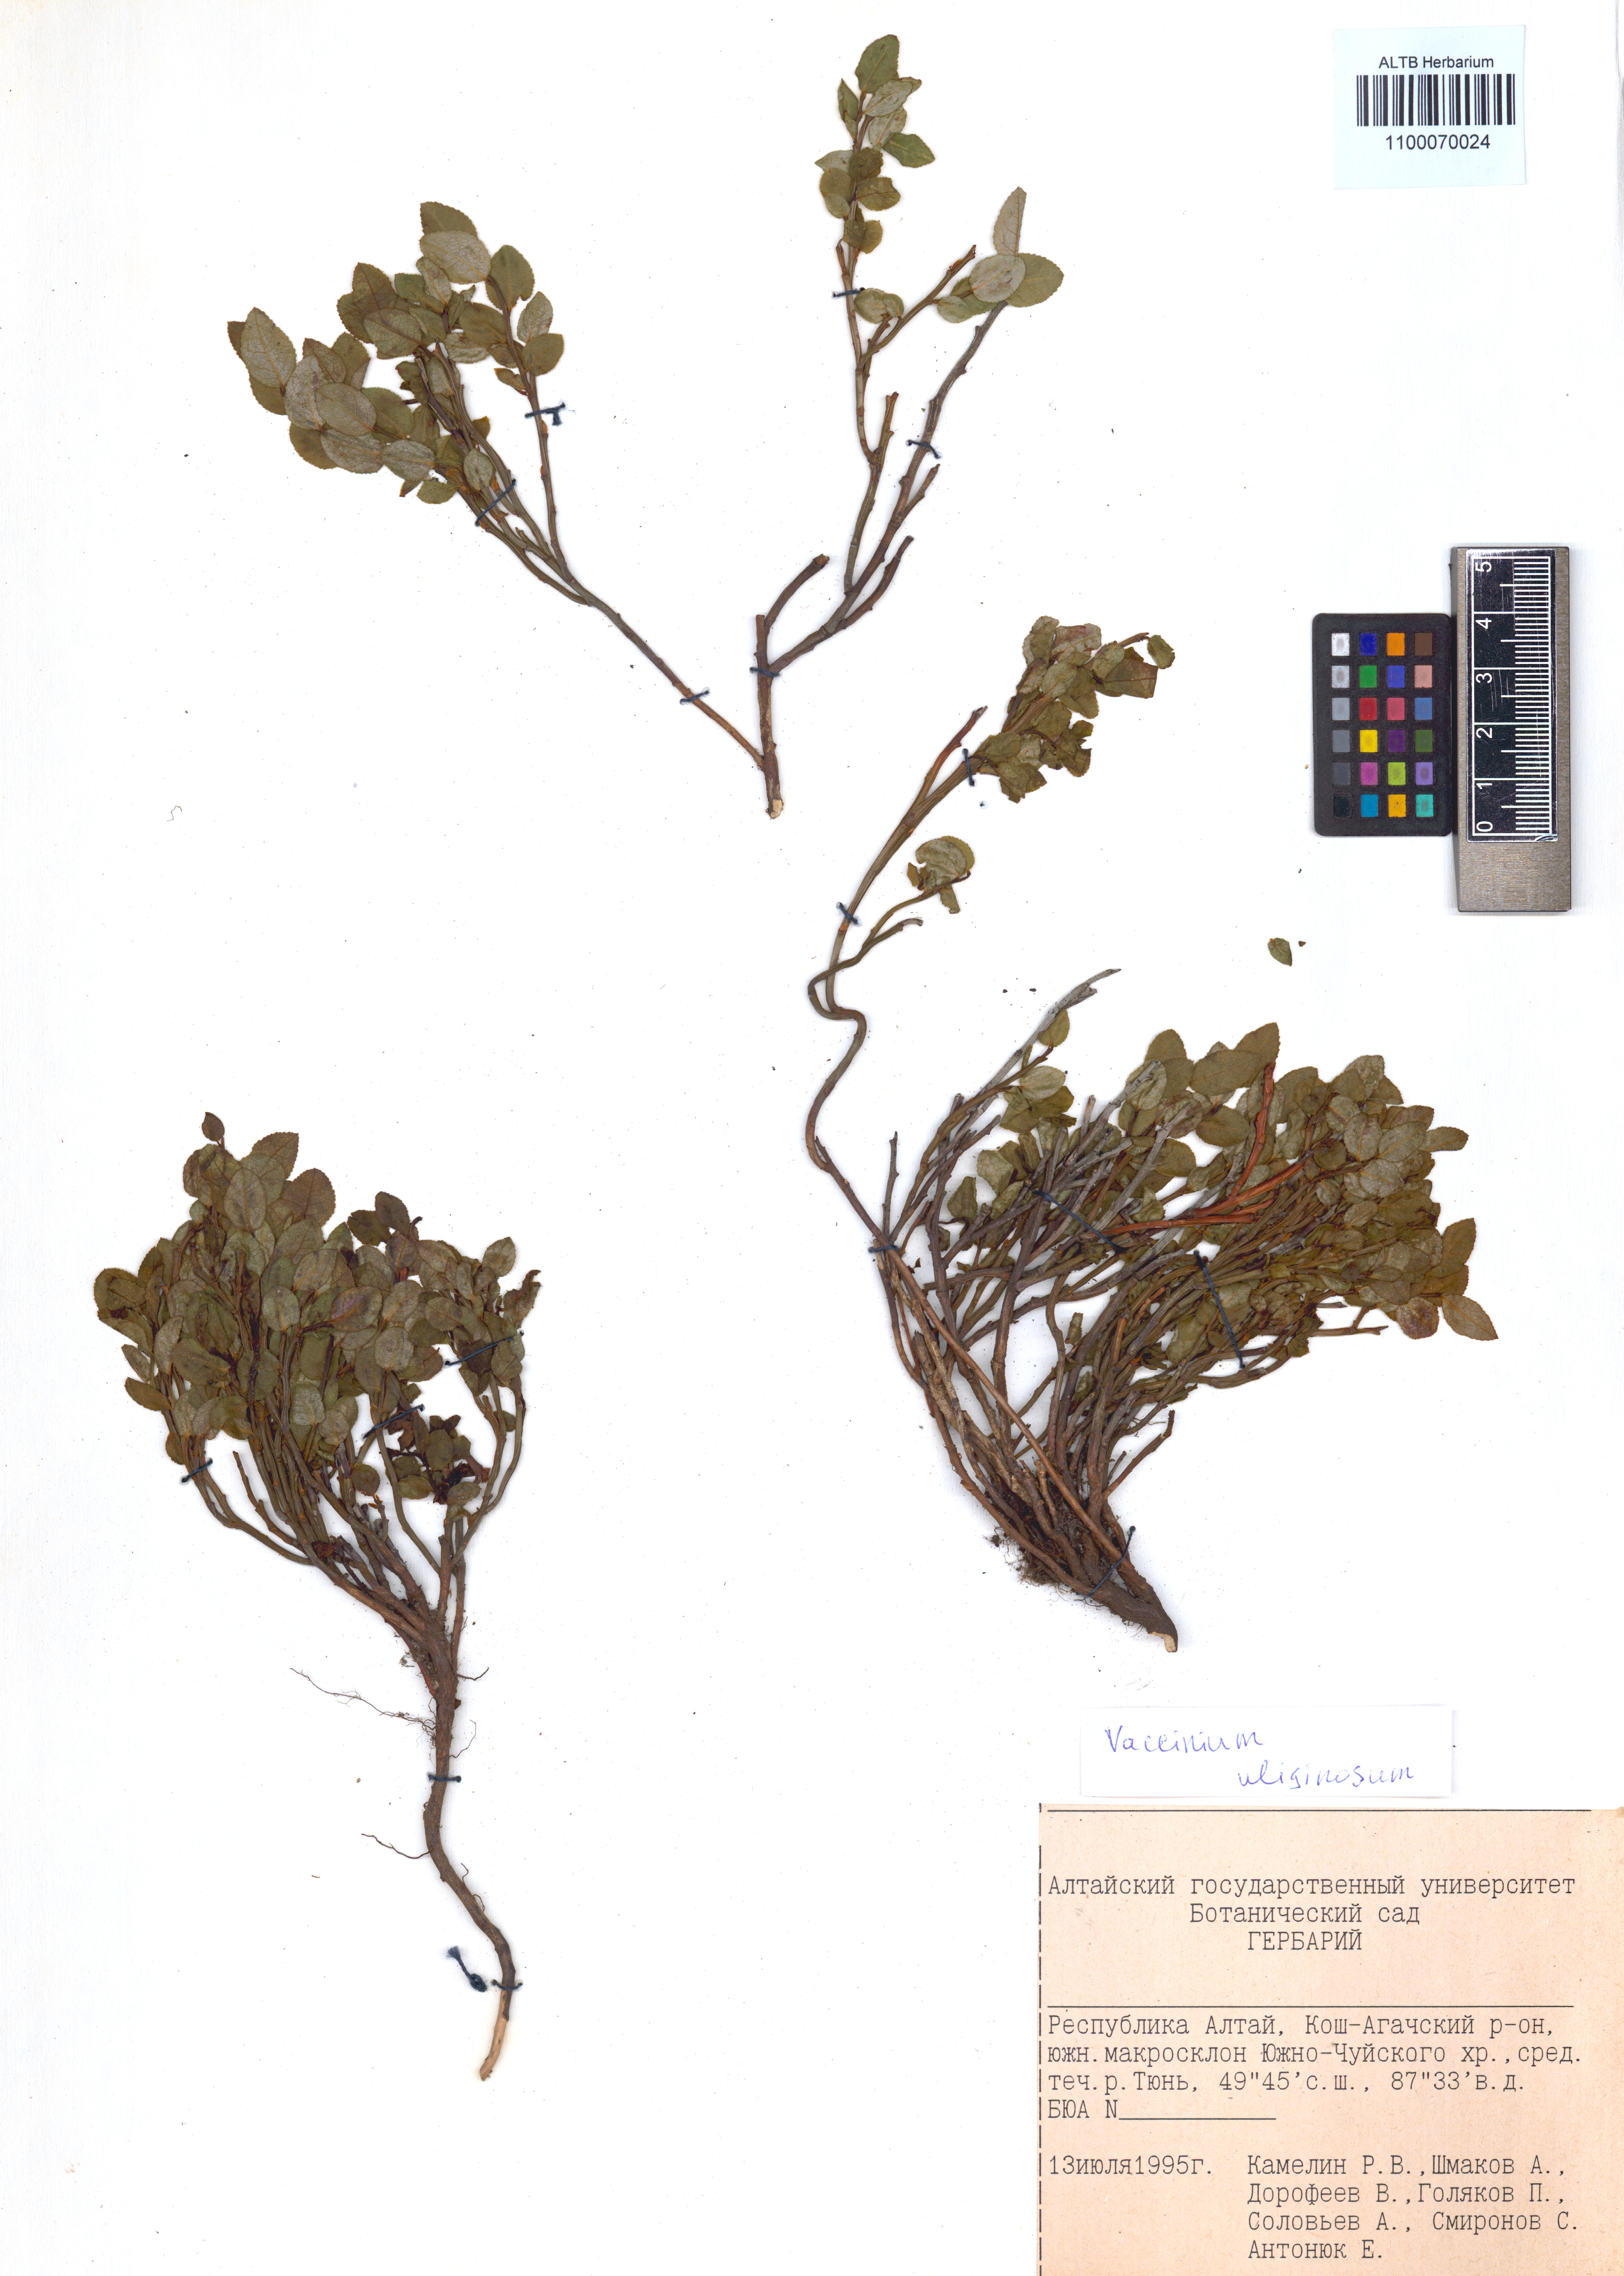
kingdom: Plantae
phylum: Tracheophyta
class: Magnoliopsida
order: Ericales
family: Ericaceae
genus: Vaccinium
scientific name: Vaccinium uliginosum
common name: Bog bilberry
